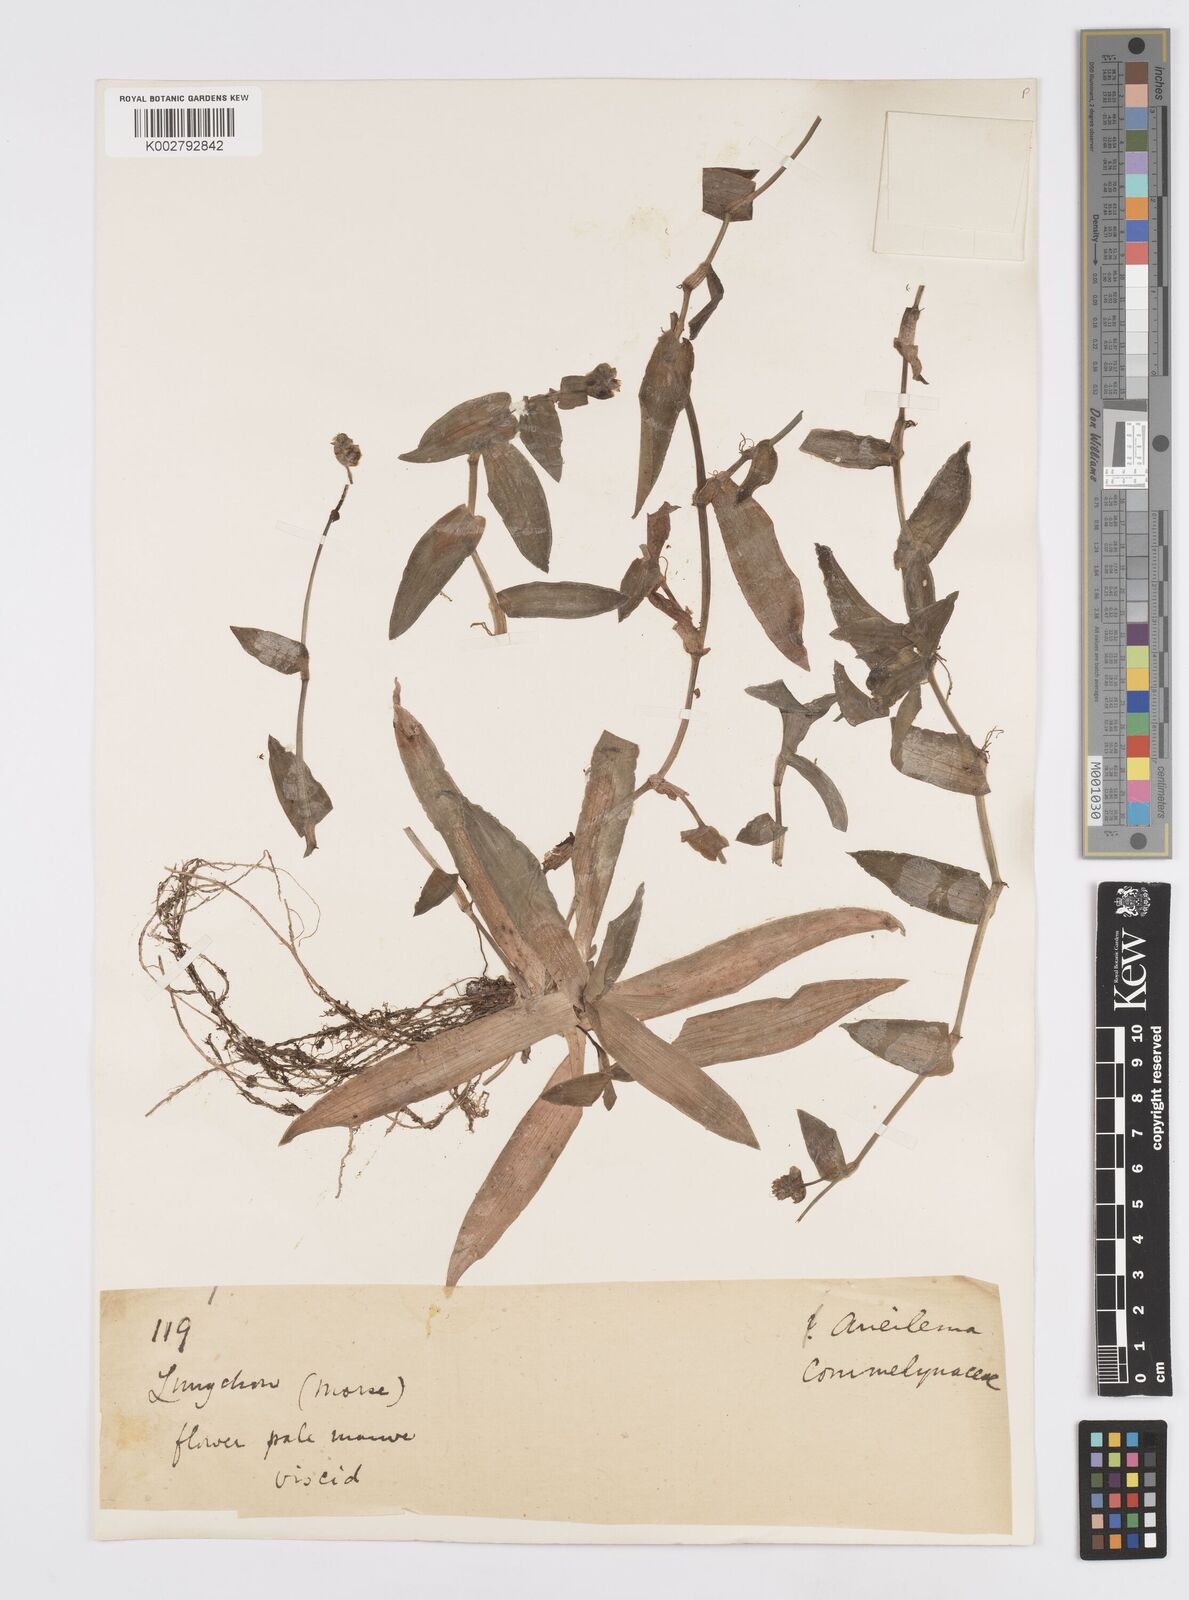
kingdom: Plantae
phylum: Tracheophyta
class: Liliopsida
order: Commelinales
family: Commelinaceae
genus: Murdannia
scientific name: Murdannia loriformis
